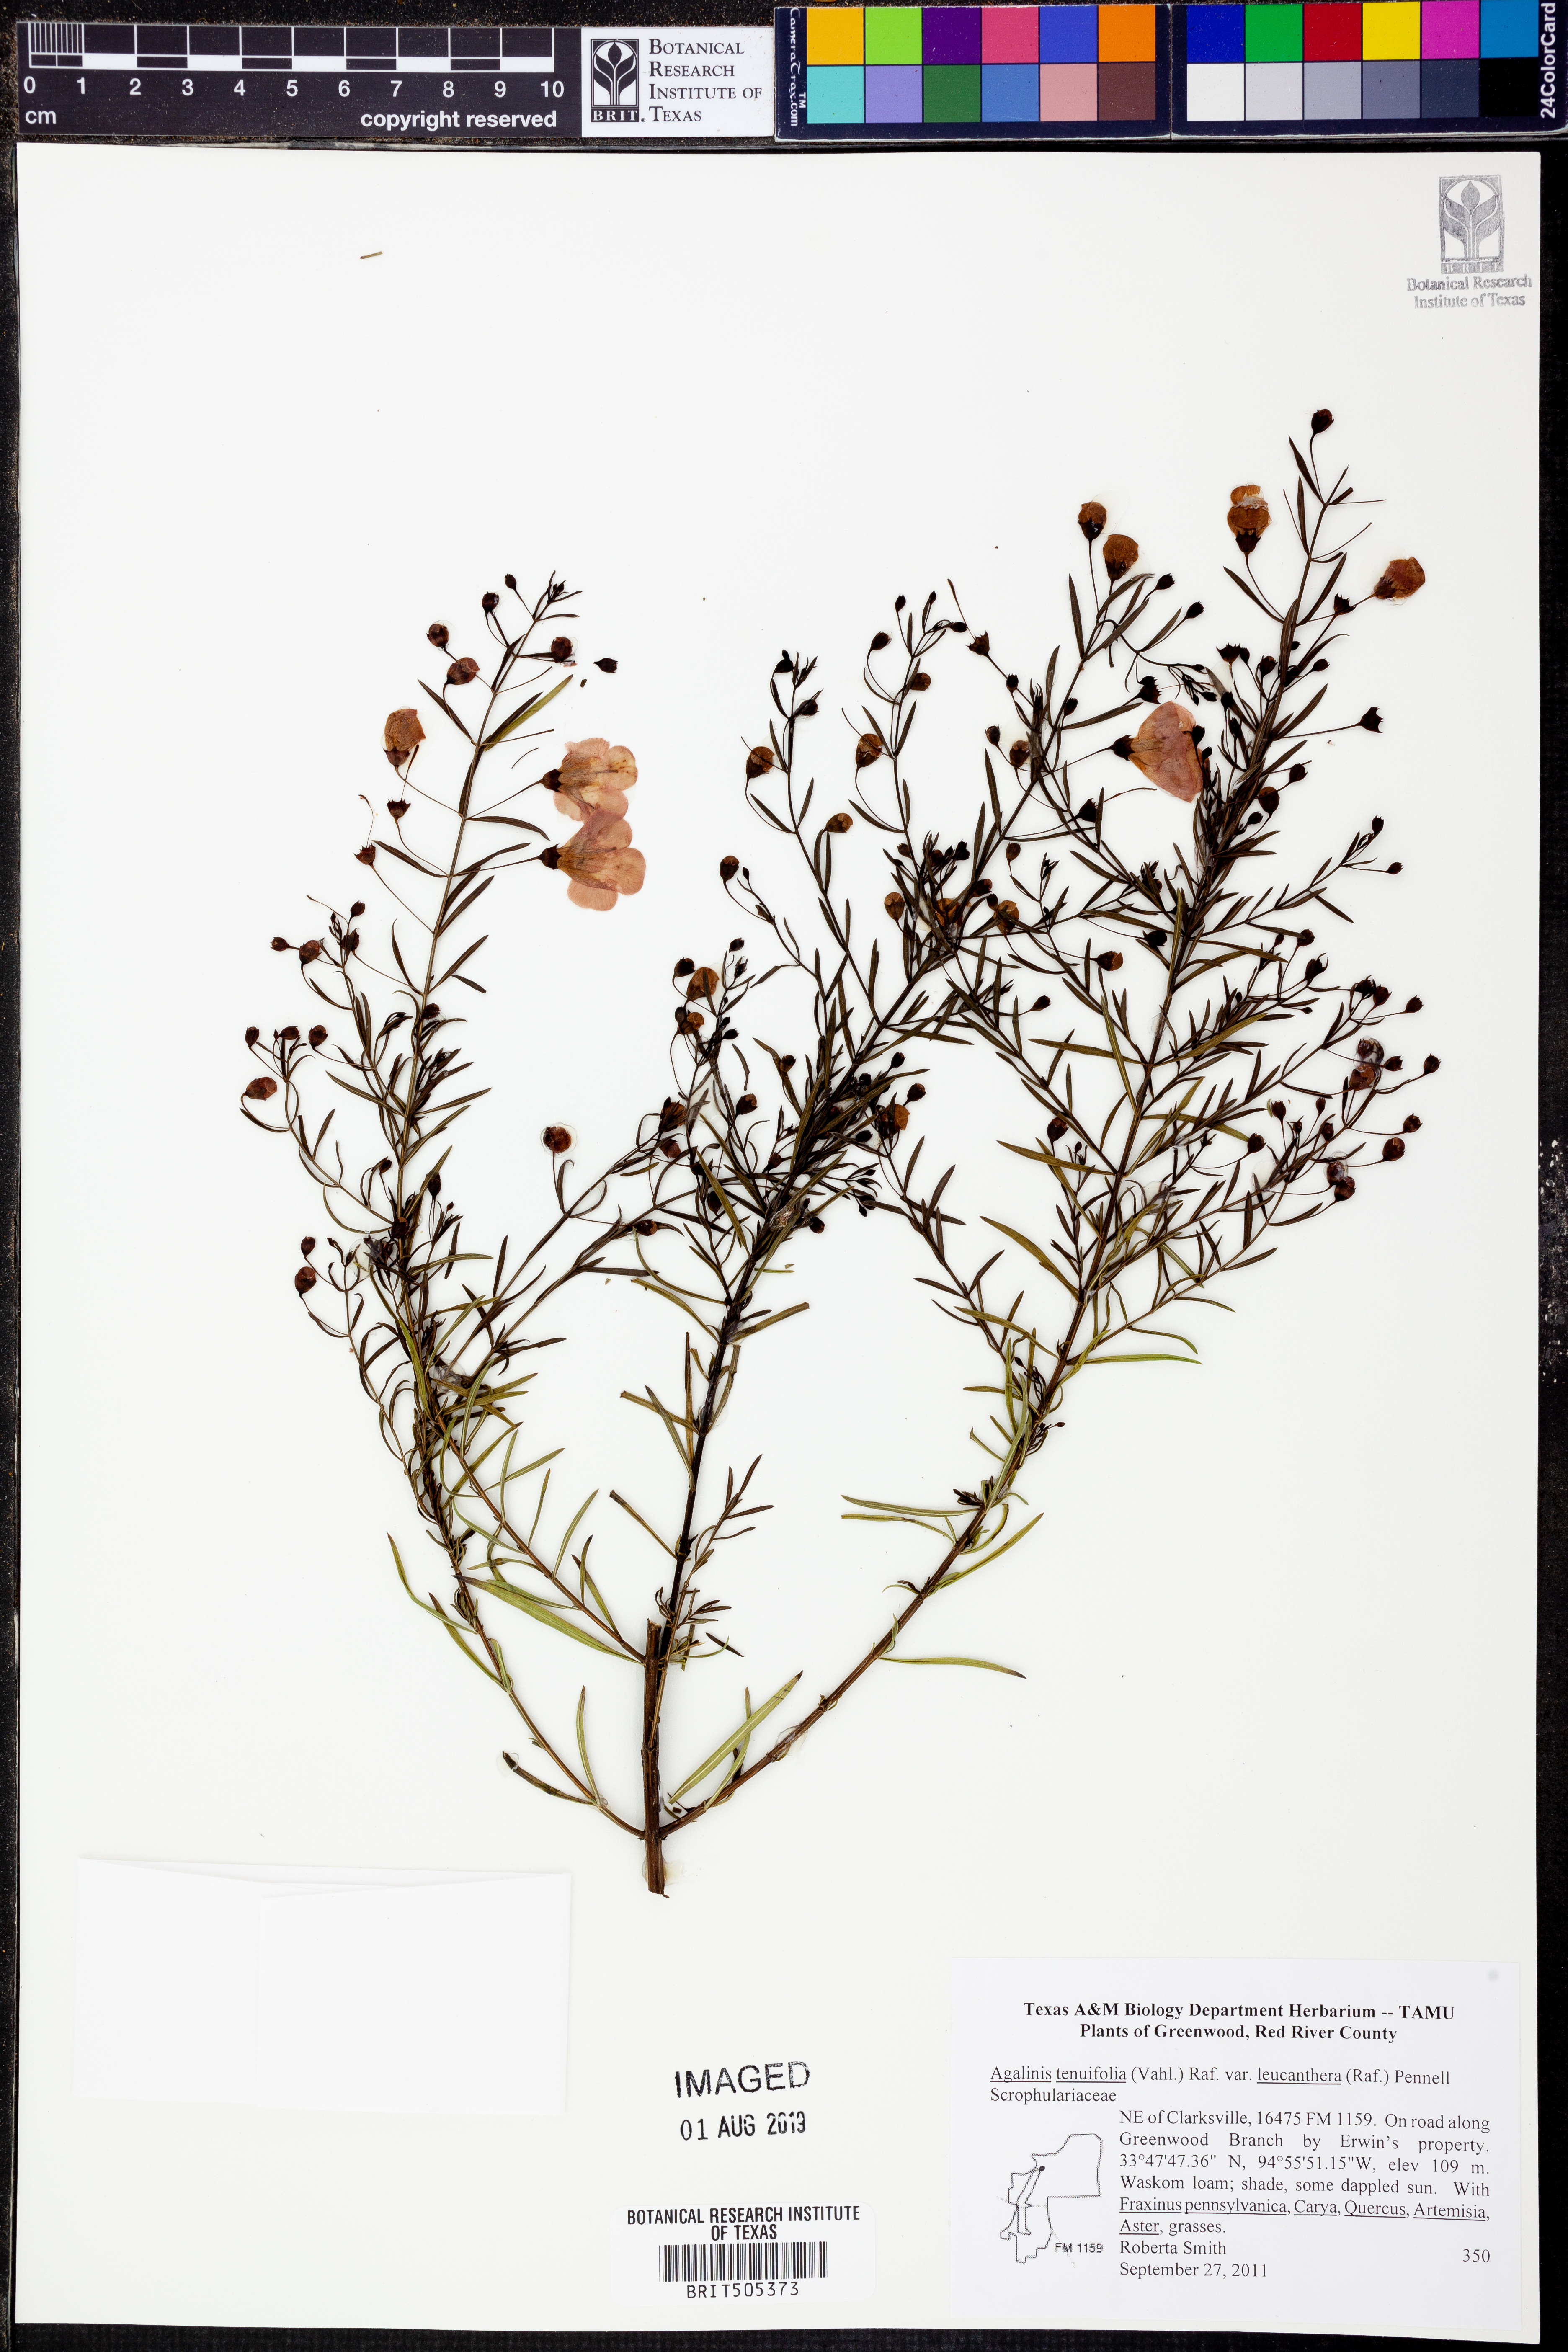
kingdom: Plantae
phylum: Tracheophyta
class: Magnoliopsida
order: Lamiales
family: Orobanchaceae
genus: Agalinis
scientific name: Agalinis tenuifolia
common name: Slender agalinis
